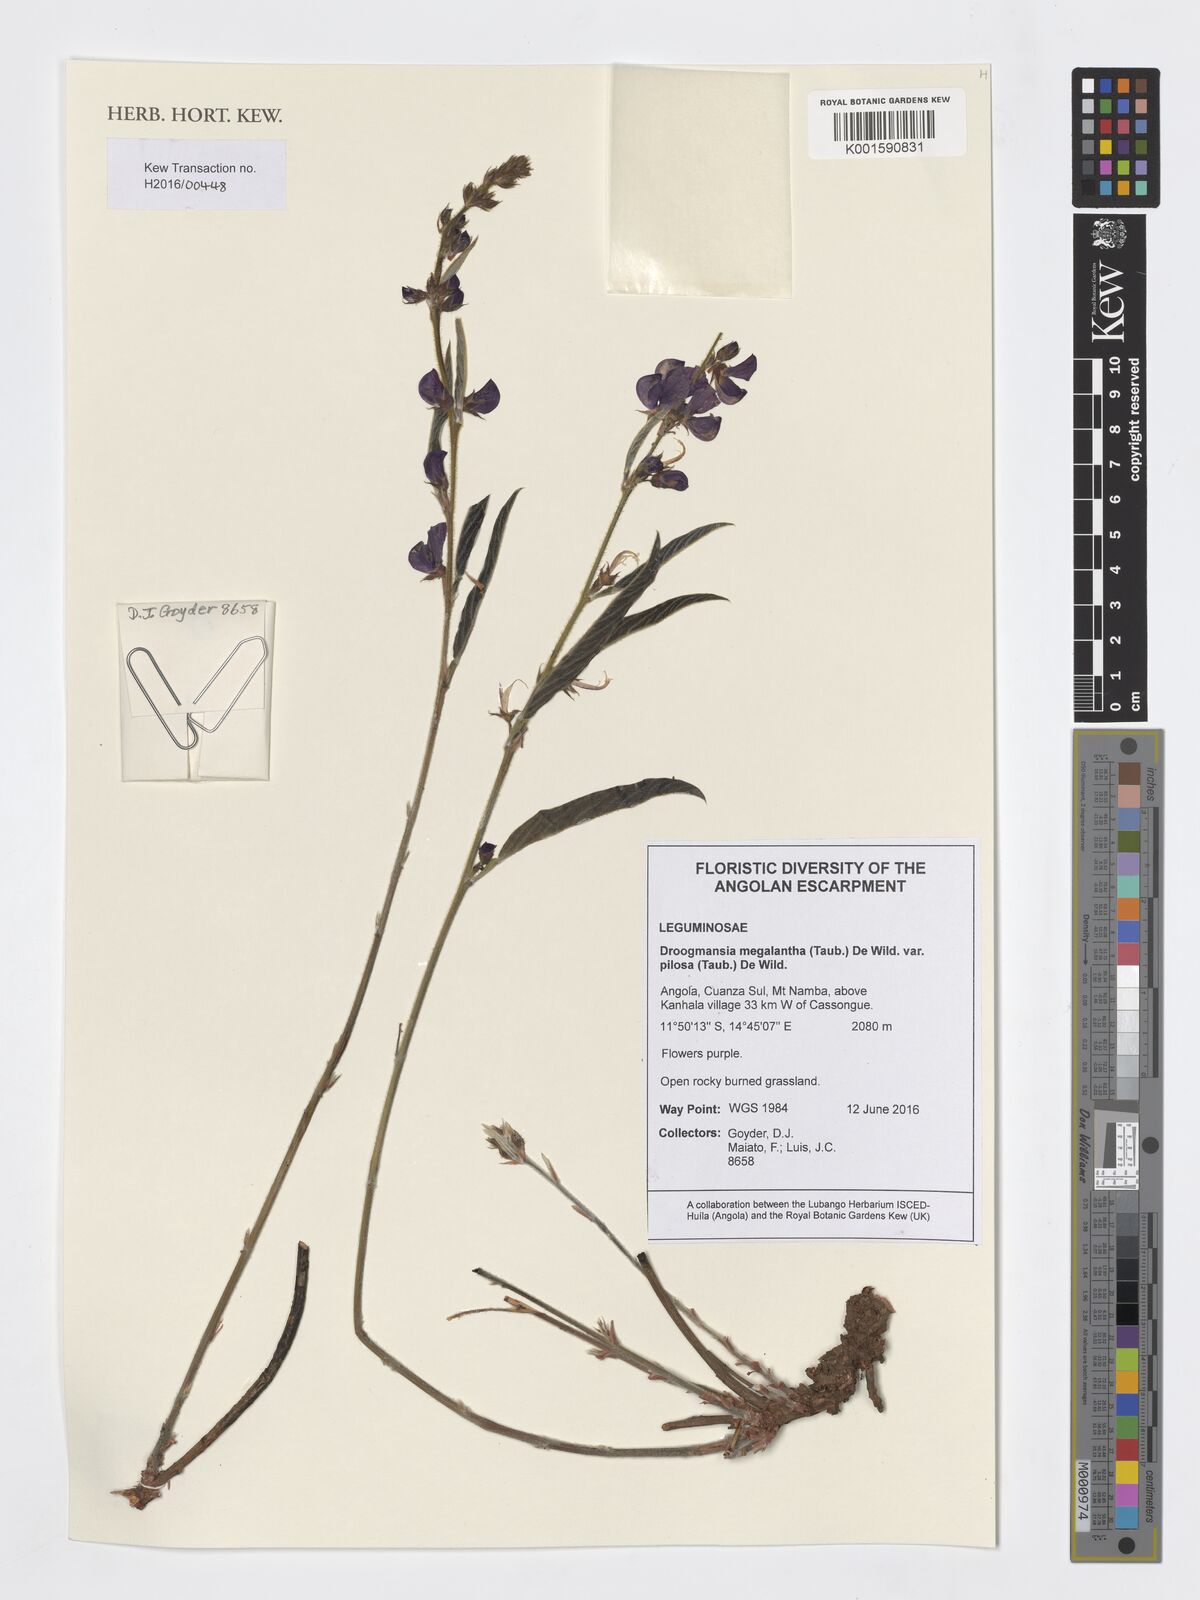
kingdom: Plantae
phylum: Tracheophyta
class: Magnoliopsida
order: Fabales
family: Fabaceae
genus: Droogmansia
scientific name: Droogmansia megalantha
